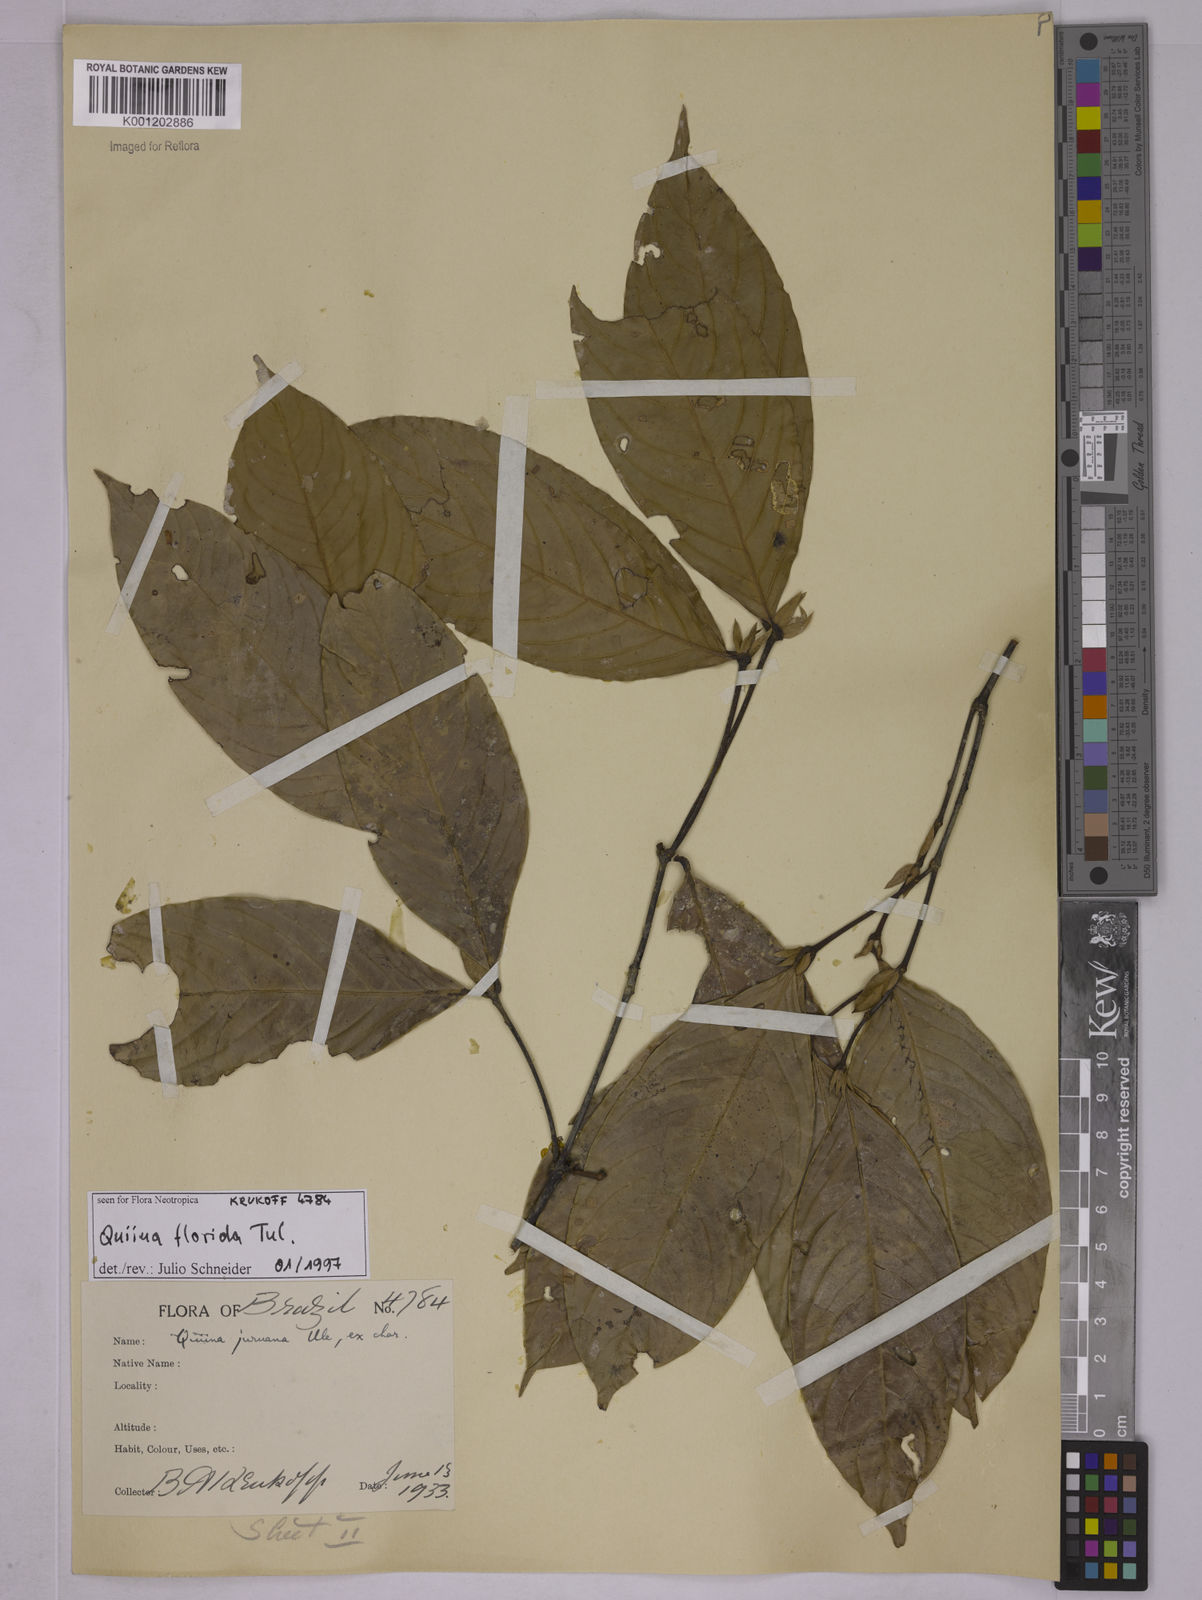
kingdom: Plantae
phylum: Tracheophyta
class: Magnoliopsida
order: Malpighiales
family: Quiinaceae
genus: Quiina
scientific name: Quiina florida
